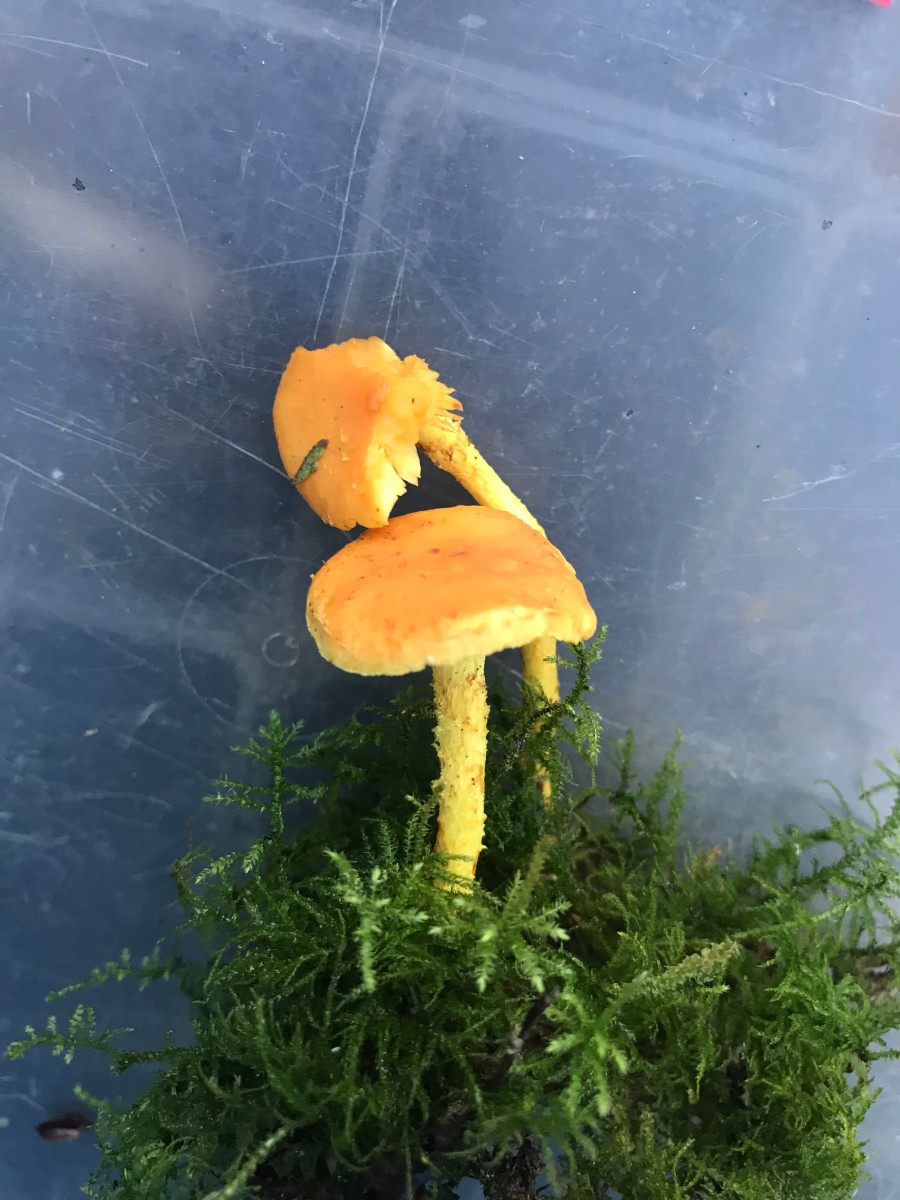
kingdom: Fungi
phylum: Basidiomycota
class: Agaricomycetes
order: Agaricales
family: Strophariaceae
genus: Pholiota
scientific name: Pholiota flammans
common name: flamme-skælhat
